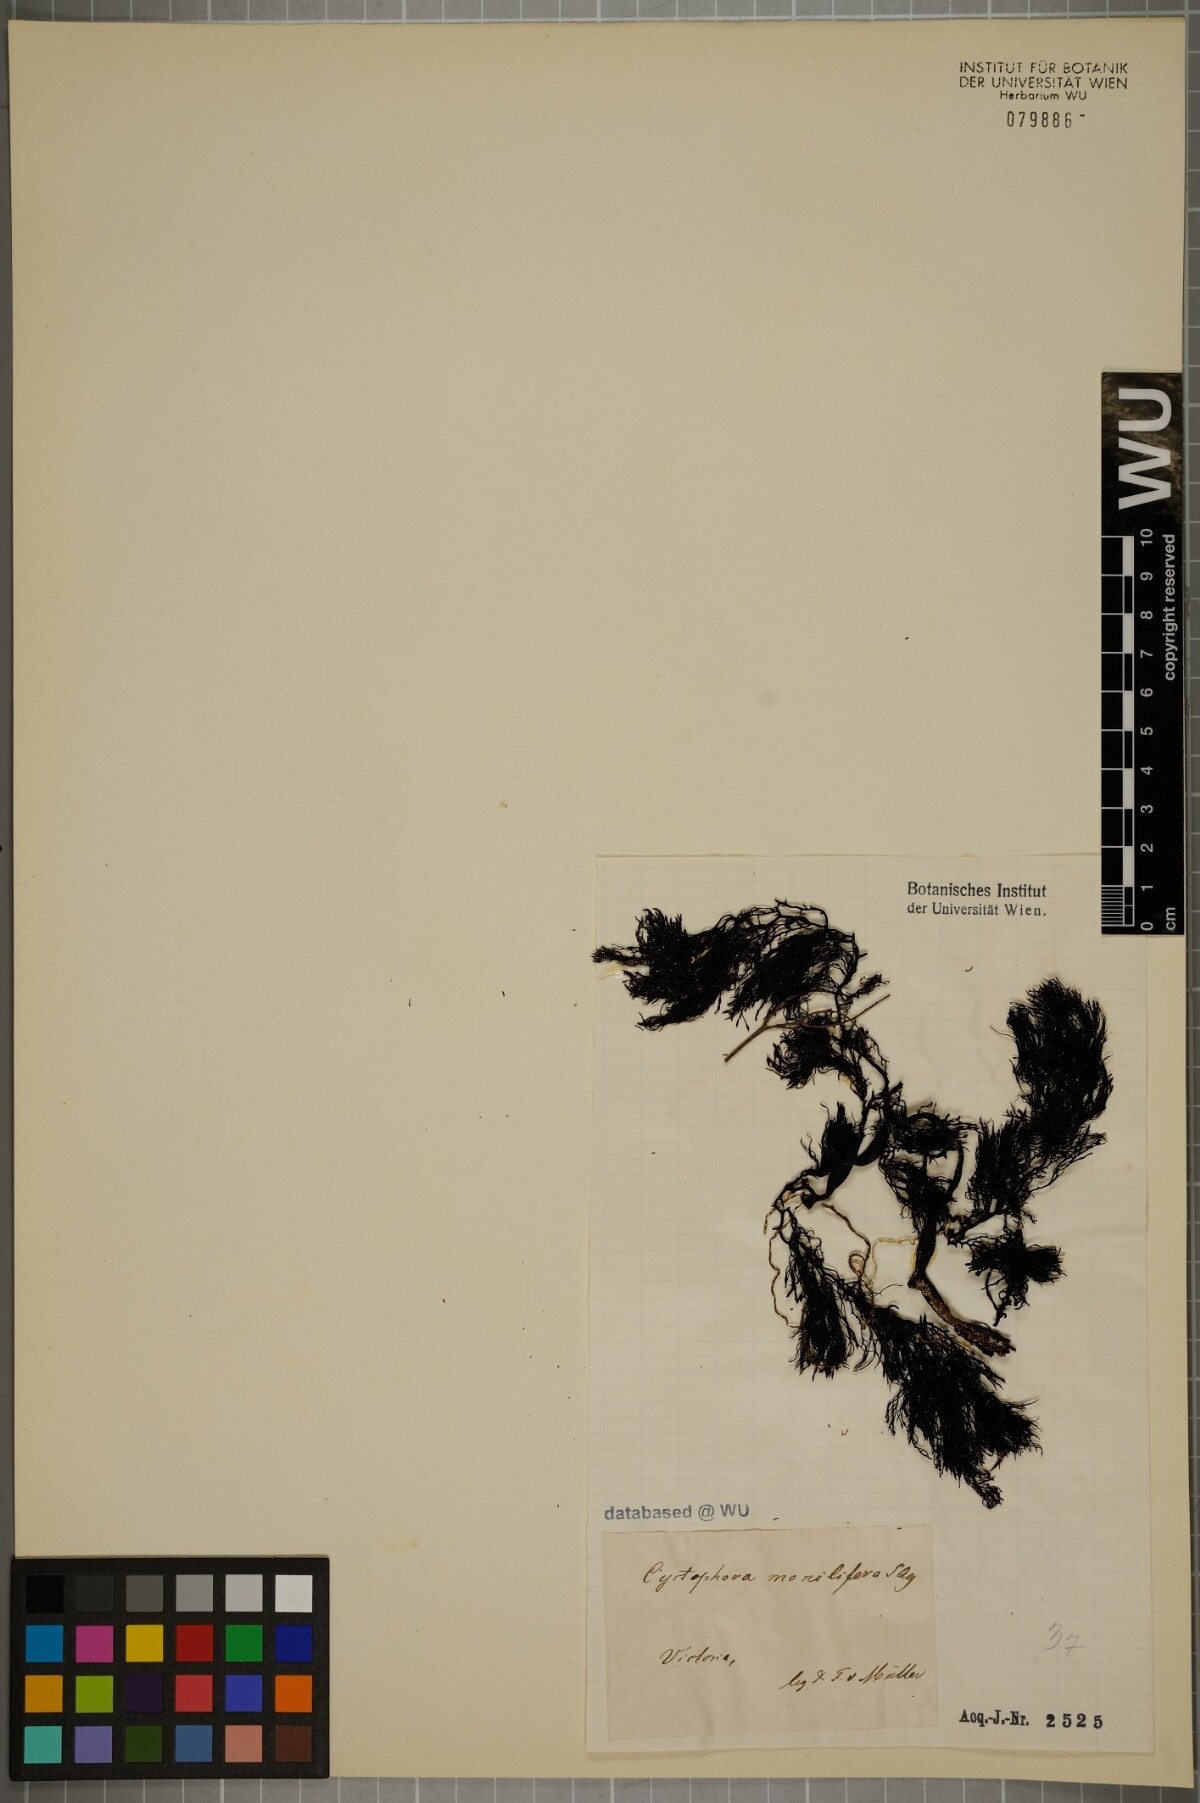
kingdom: Chromista
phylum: Ochrophyta
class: Phaeophyceae
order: Fucales
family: Sargassaceae
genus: Cystophora
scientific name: Cystophora
